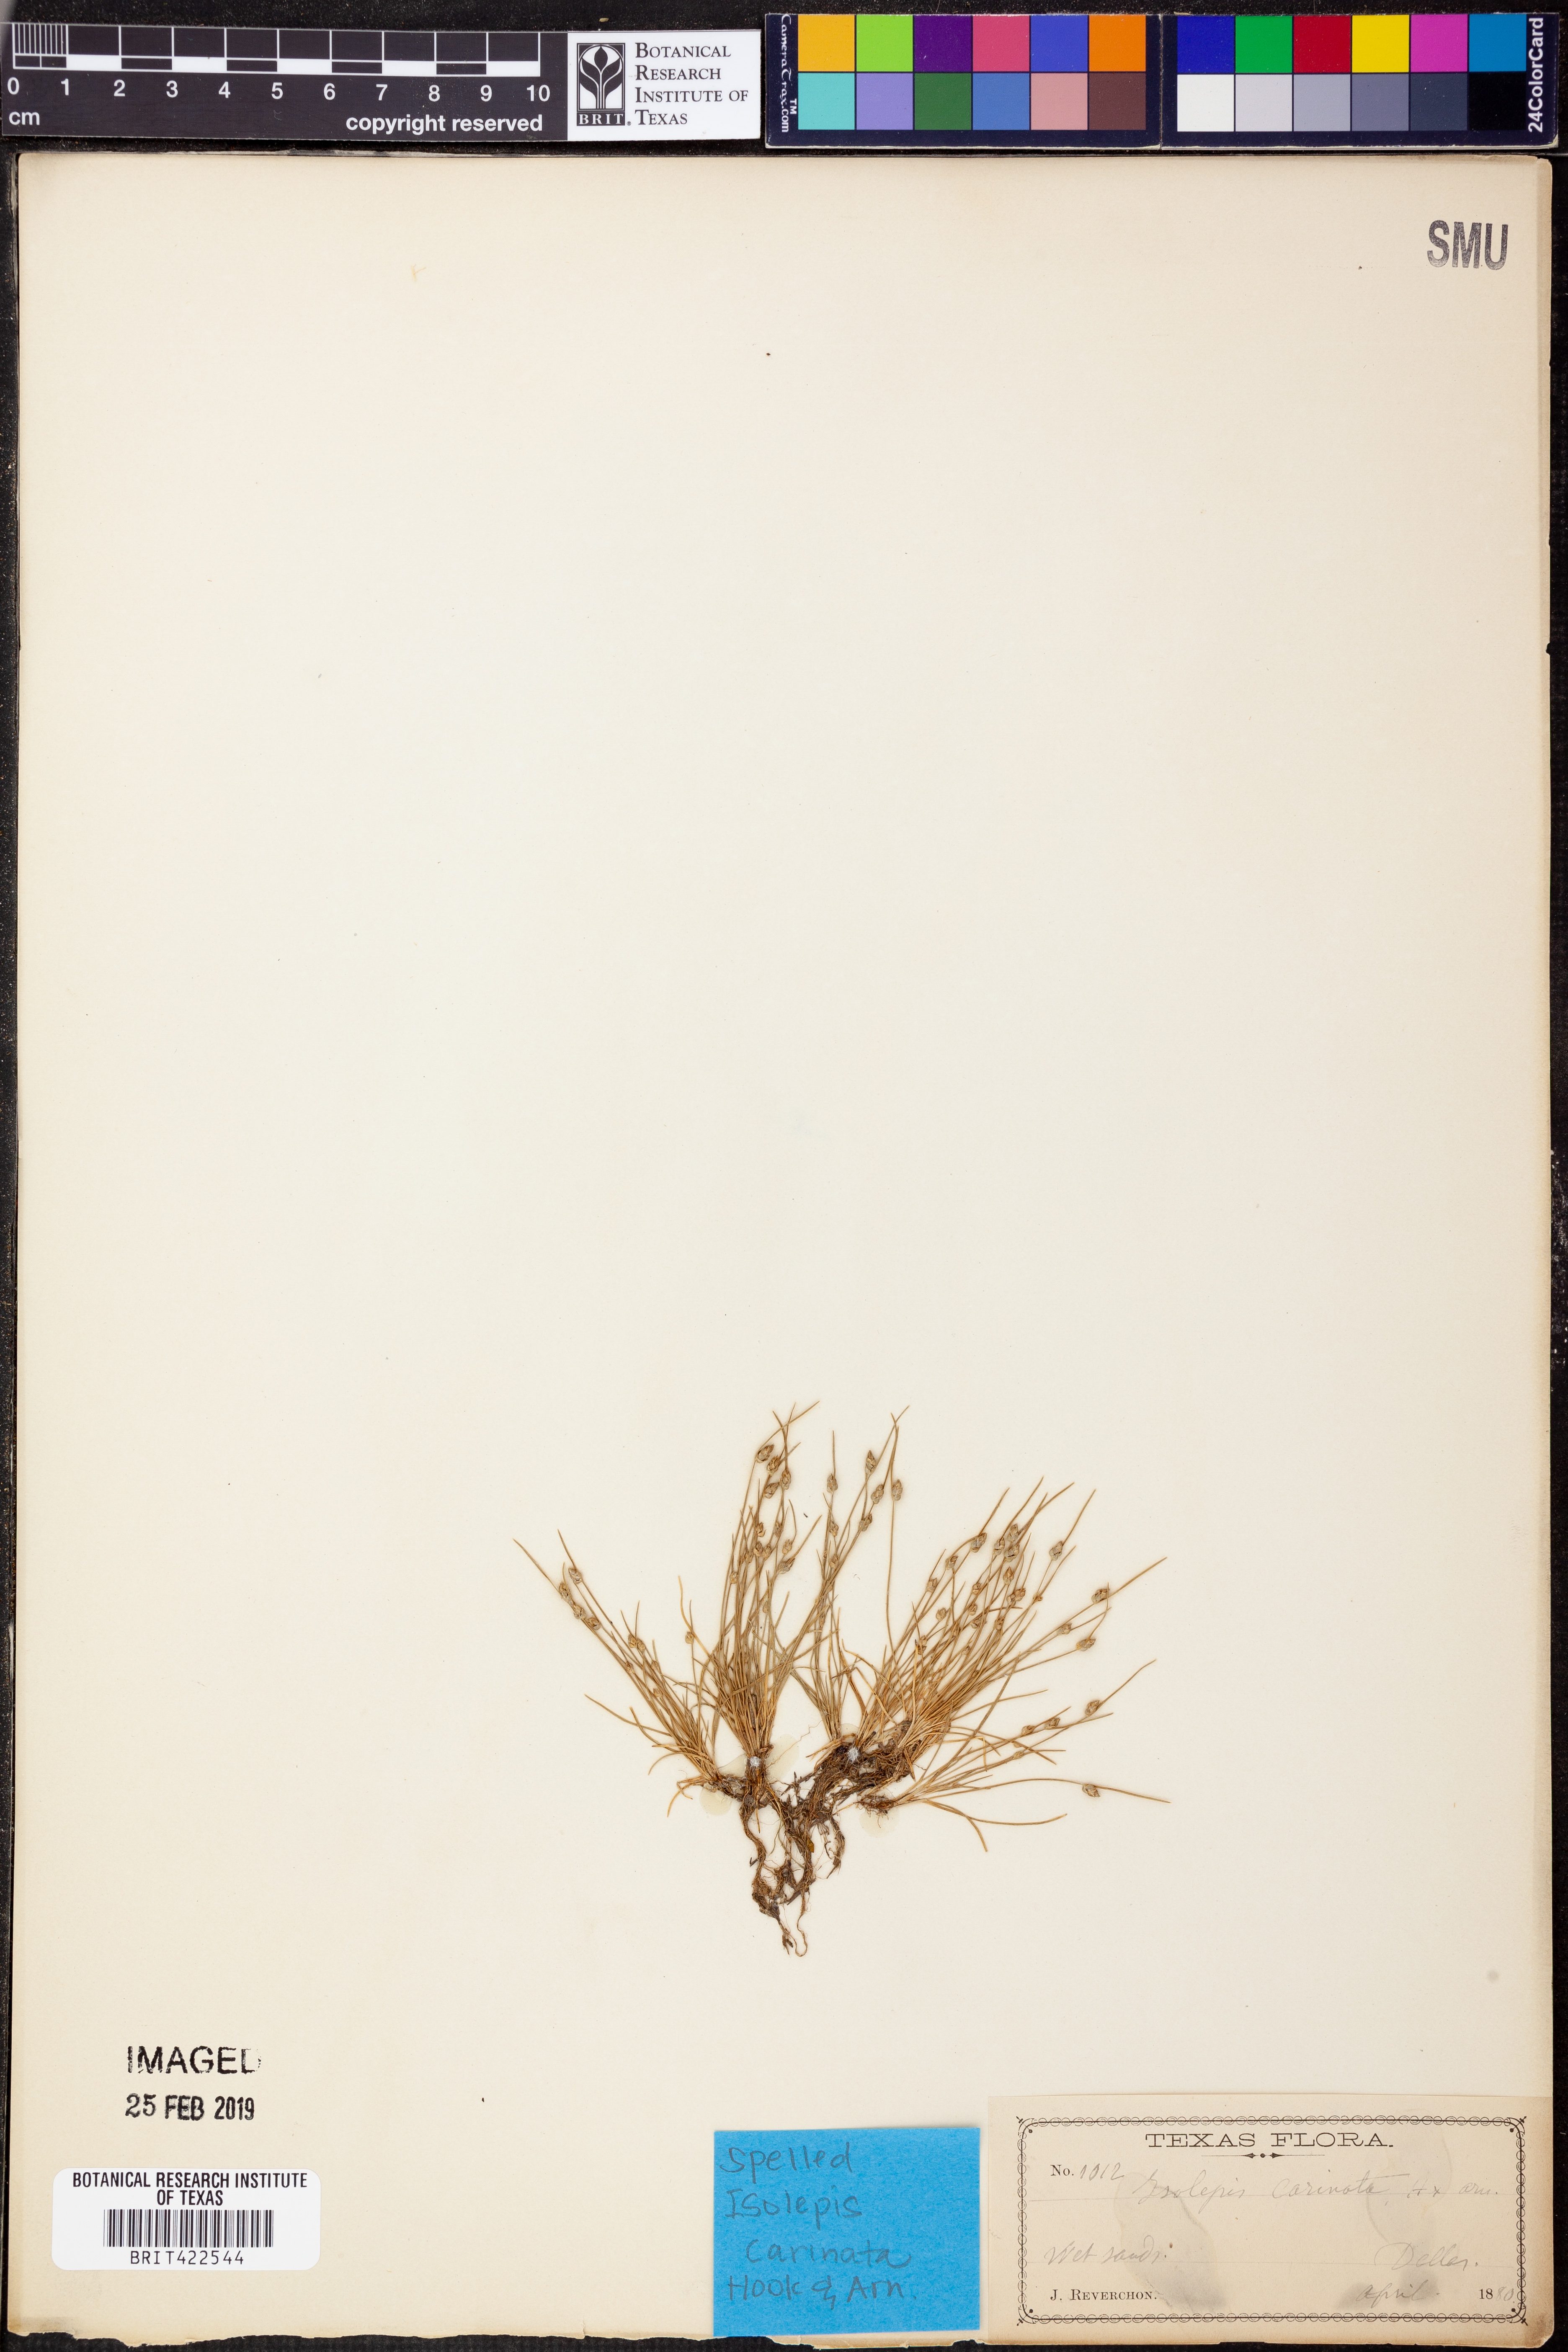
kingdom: Plantae
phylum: Tracheophyta
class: Liliopsida
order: Poales
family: Cyperaceae
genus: Isolepis
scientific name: Isolepis carinata
